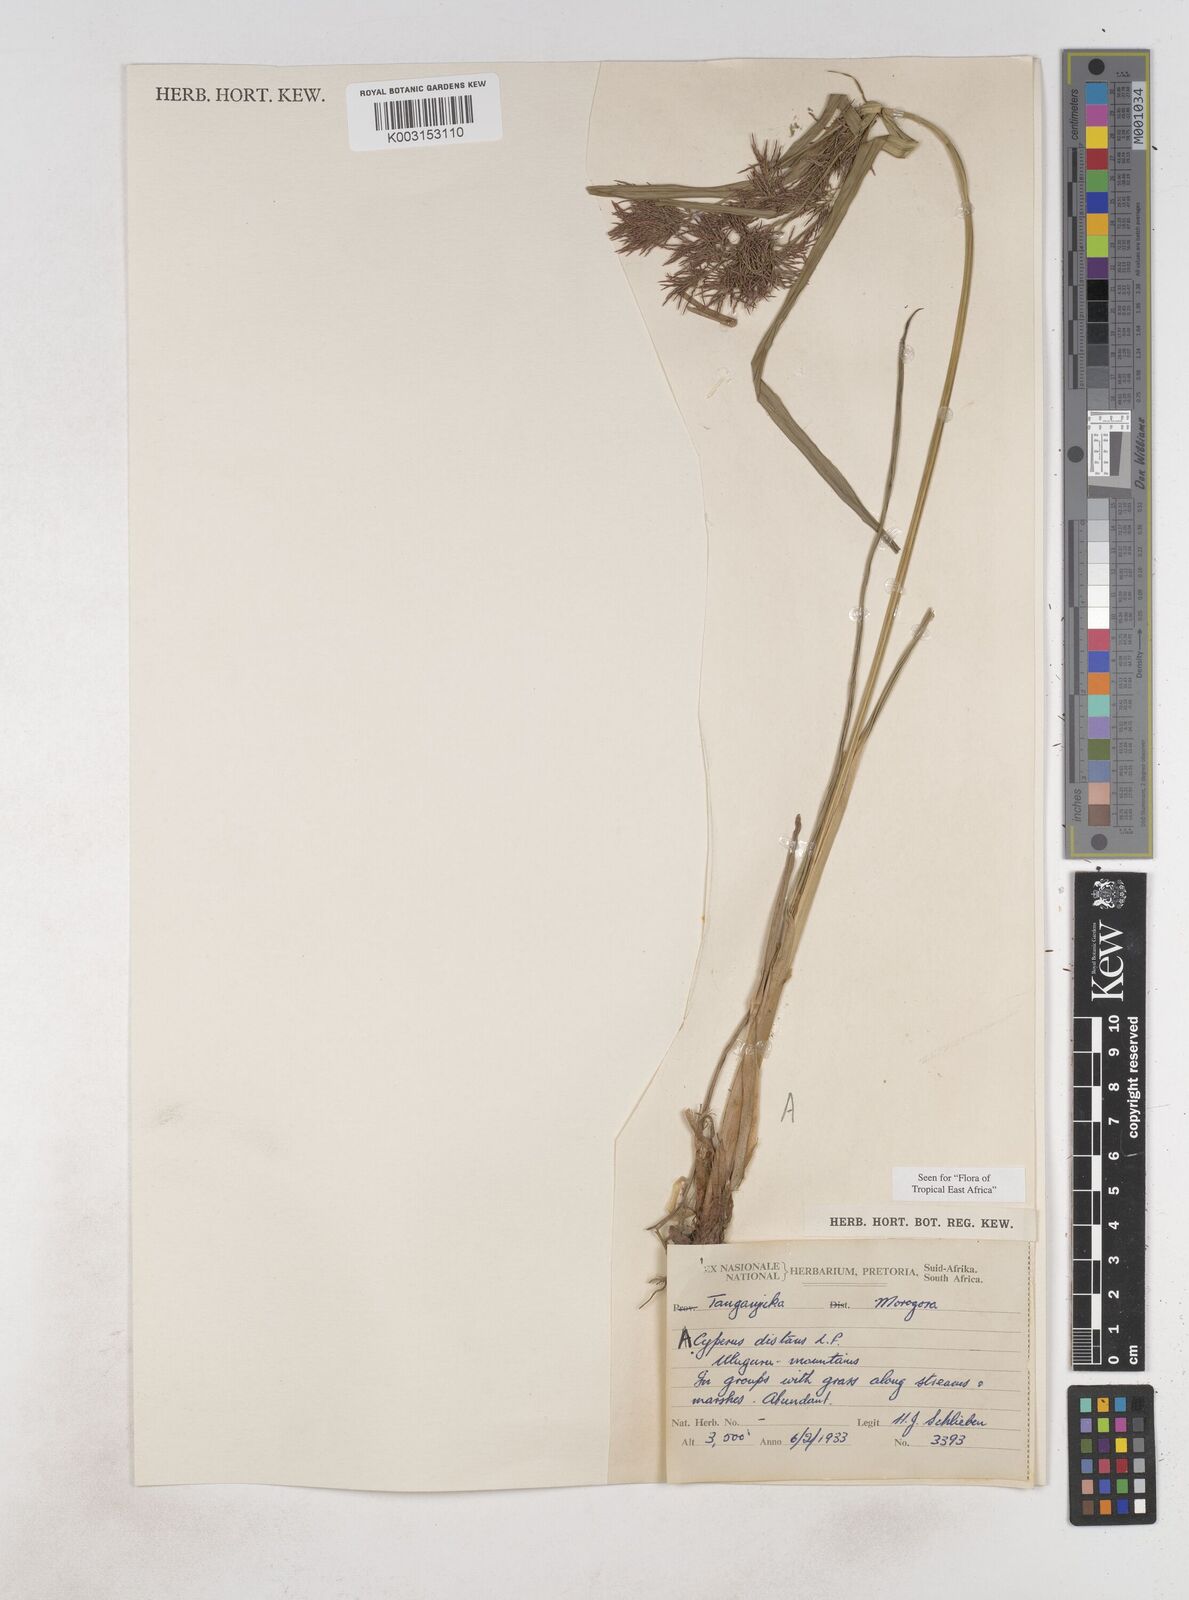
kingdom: Plantae
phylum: Tracheophyta
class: Liliopsida
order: Poales
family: Cyperaceae
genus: Cyperus
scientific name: Cyperus distans
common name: Slender cyperus
